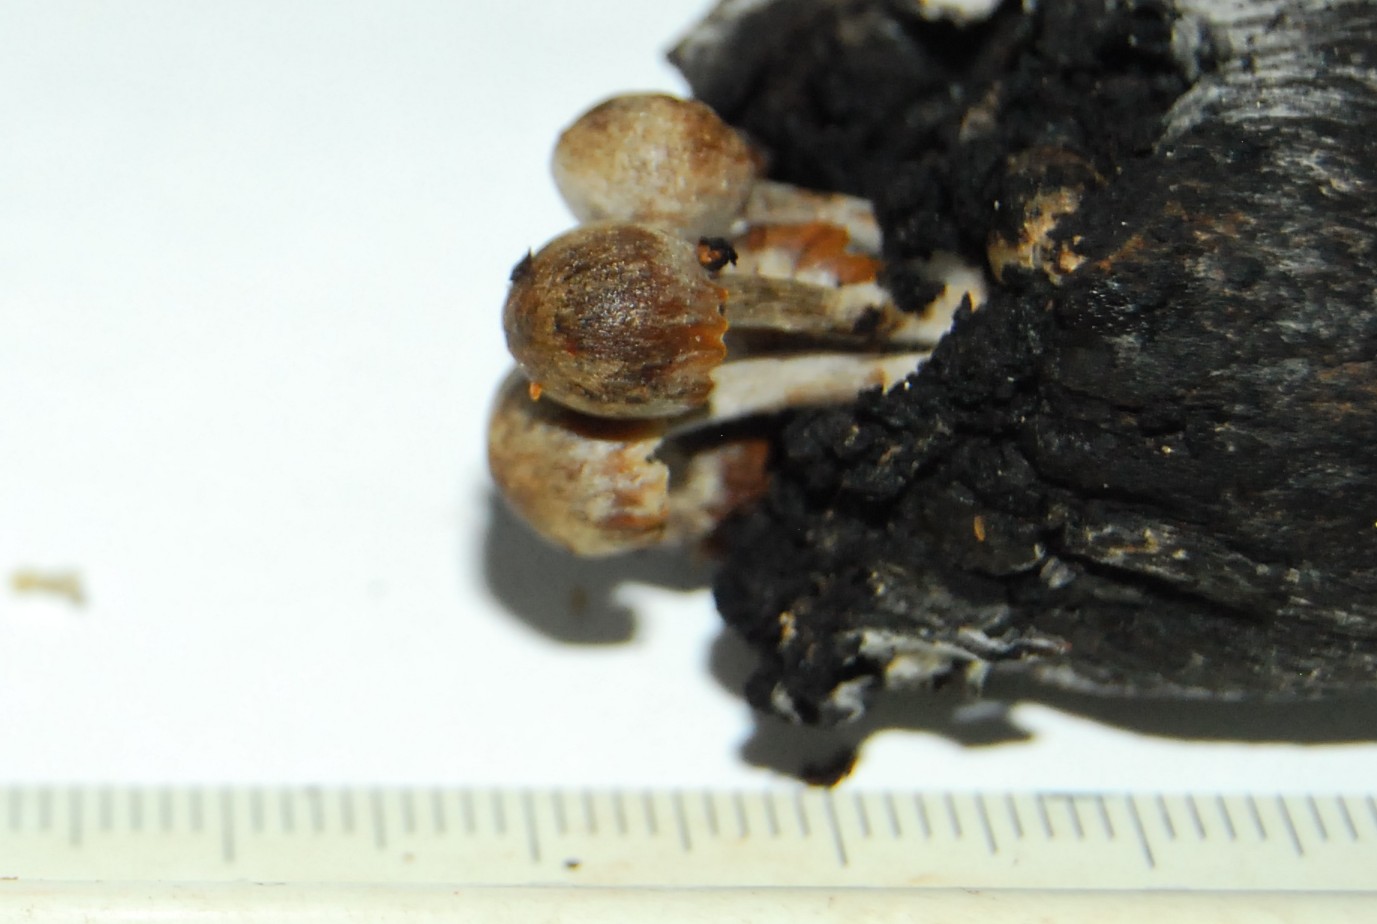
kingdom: Fungi
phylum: Basidiomycota
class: Agaricomycetes
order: Agaricales
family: Lyophyllaceae
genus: Asterophora
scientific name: Asterophora parasitica
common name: grå snyltehat
